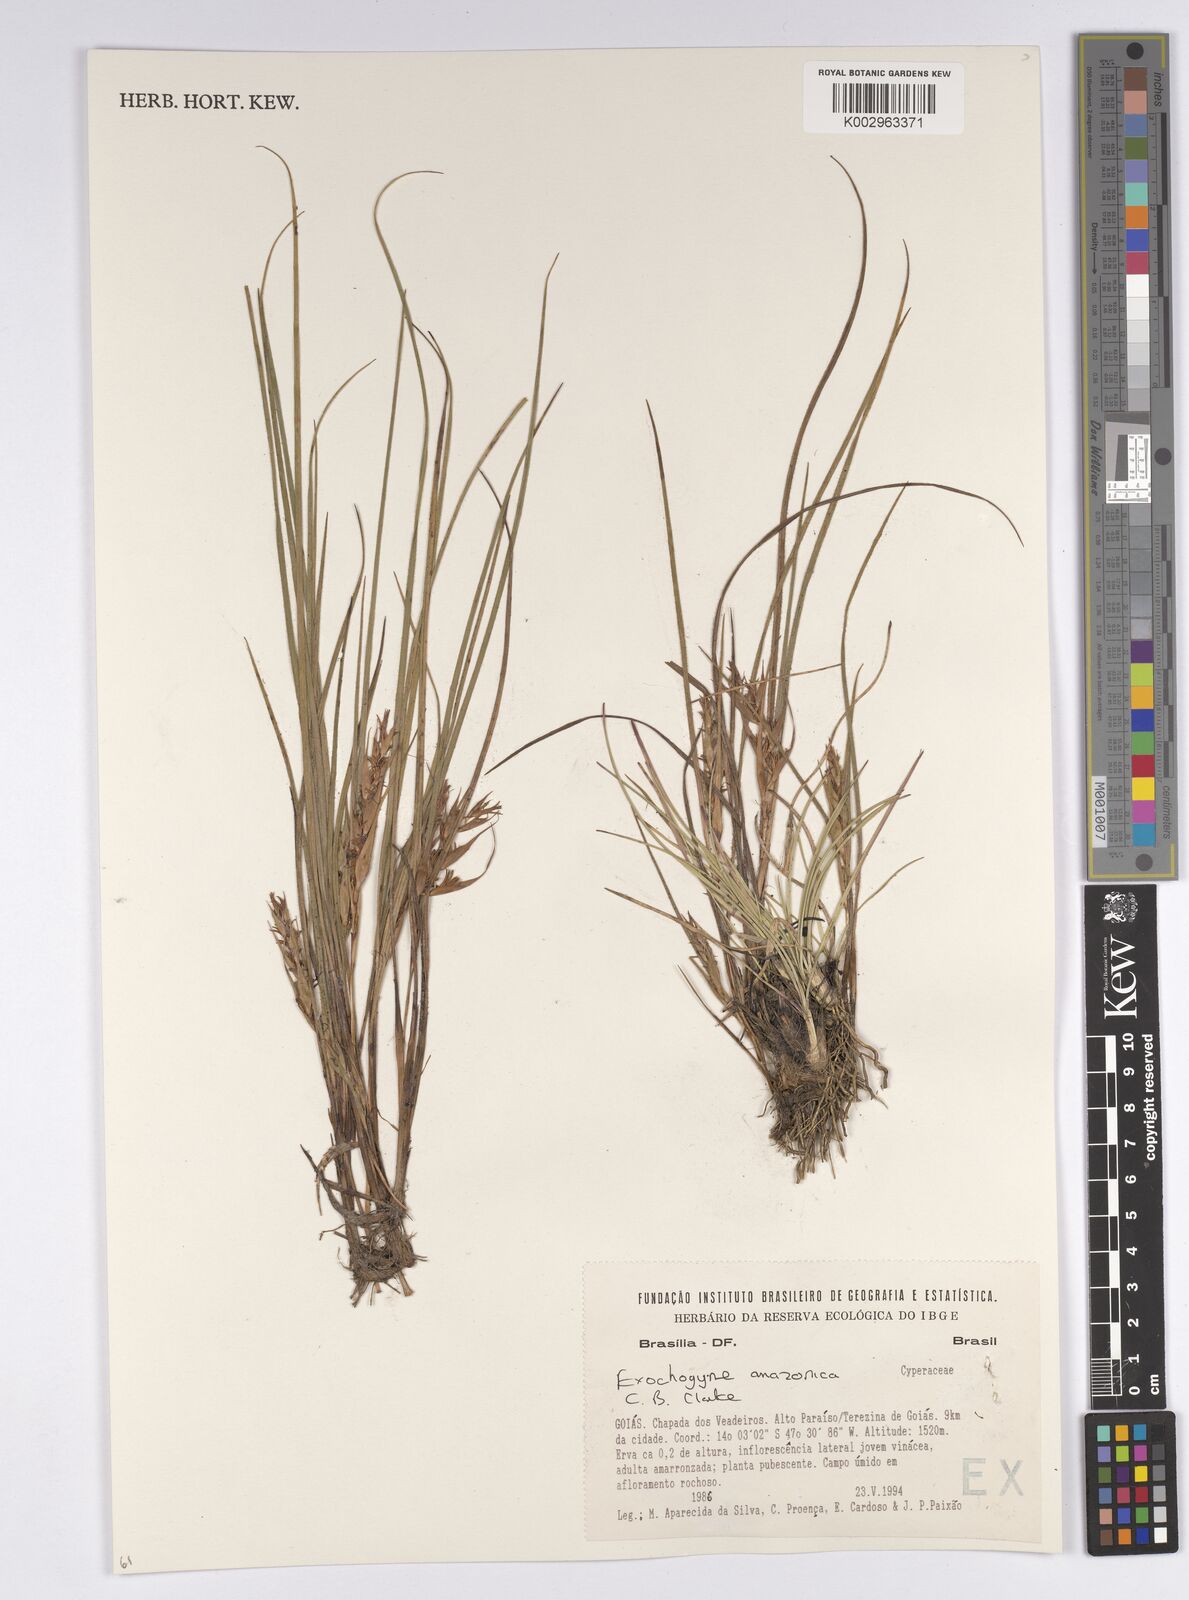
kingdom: Plantae
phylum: Tracheophyta
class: Liliopsida
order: Poales
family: Cyperaceae
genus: Exochogyne
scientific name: Exochogyne amazonica
